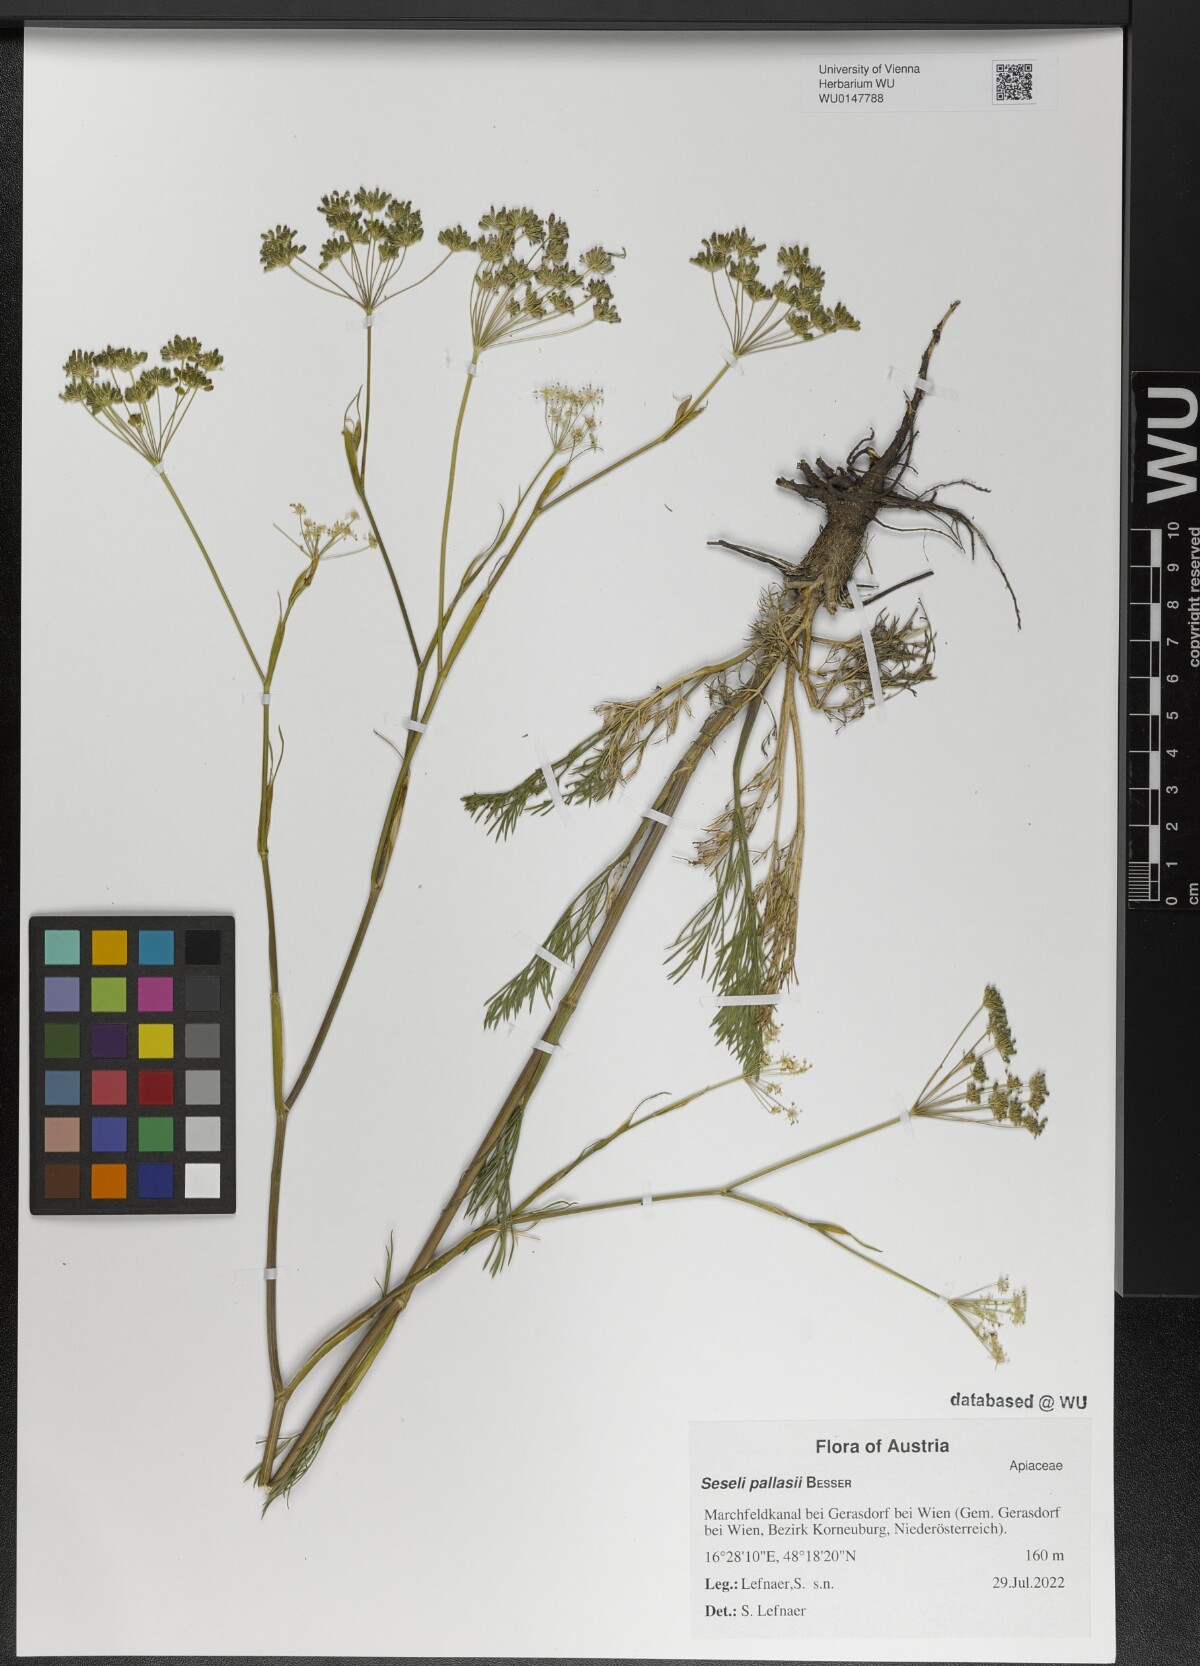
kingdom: Plantae
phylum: Tracheophyta
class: Magnoliopsida
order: Apiales
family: Apiaceae
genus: Seseli
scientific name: Seseli pallasii
